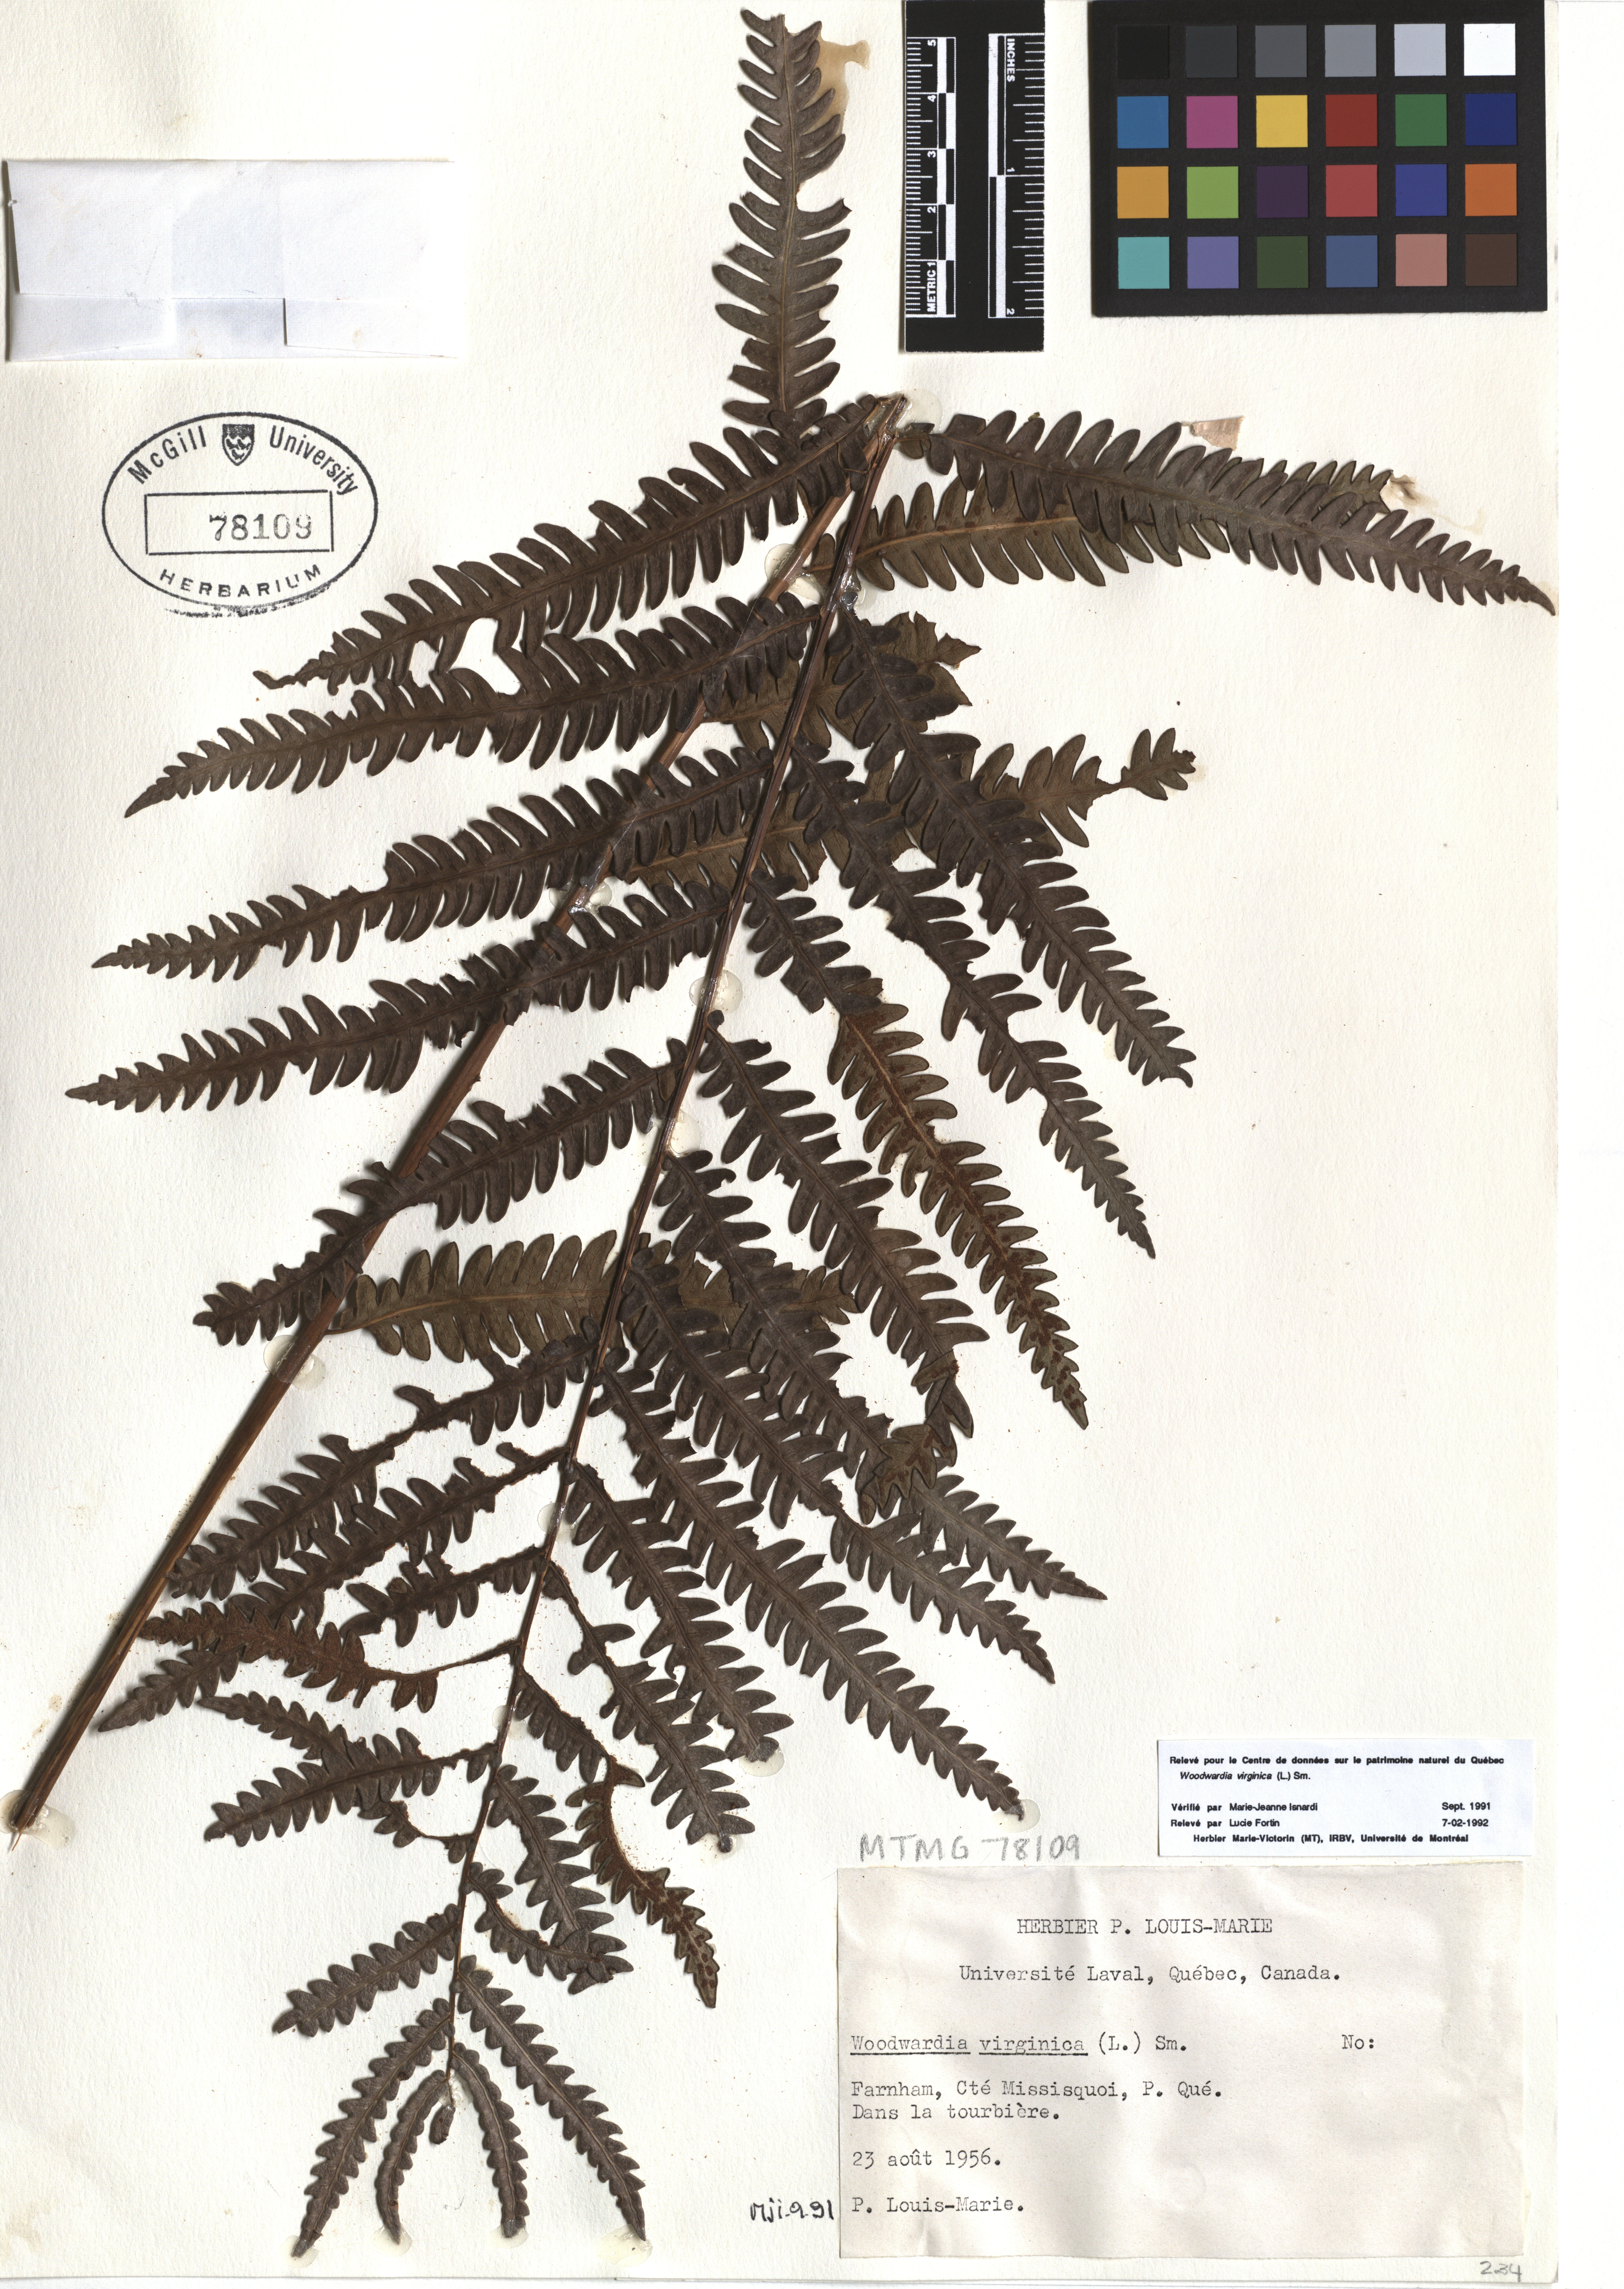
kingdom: Plantae
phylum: Tracheophyta
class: Polypodiopsida
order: Polypodiales
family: Blechnaceae
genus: Anchistea
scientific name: Anchistea virginica
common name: Virginia chain fern
